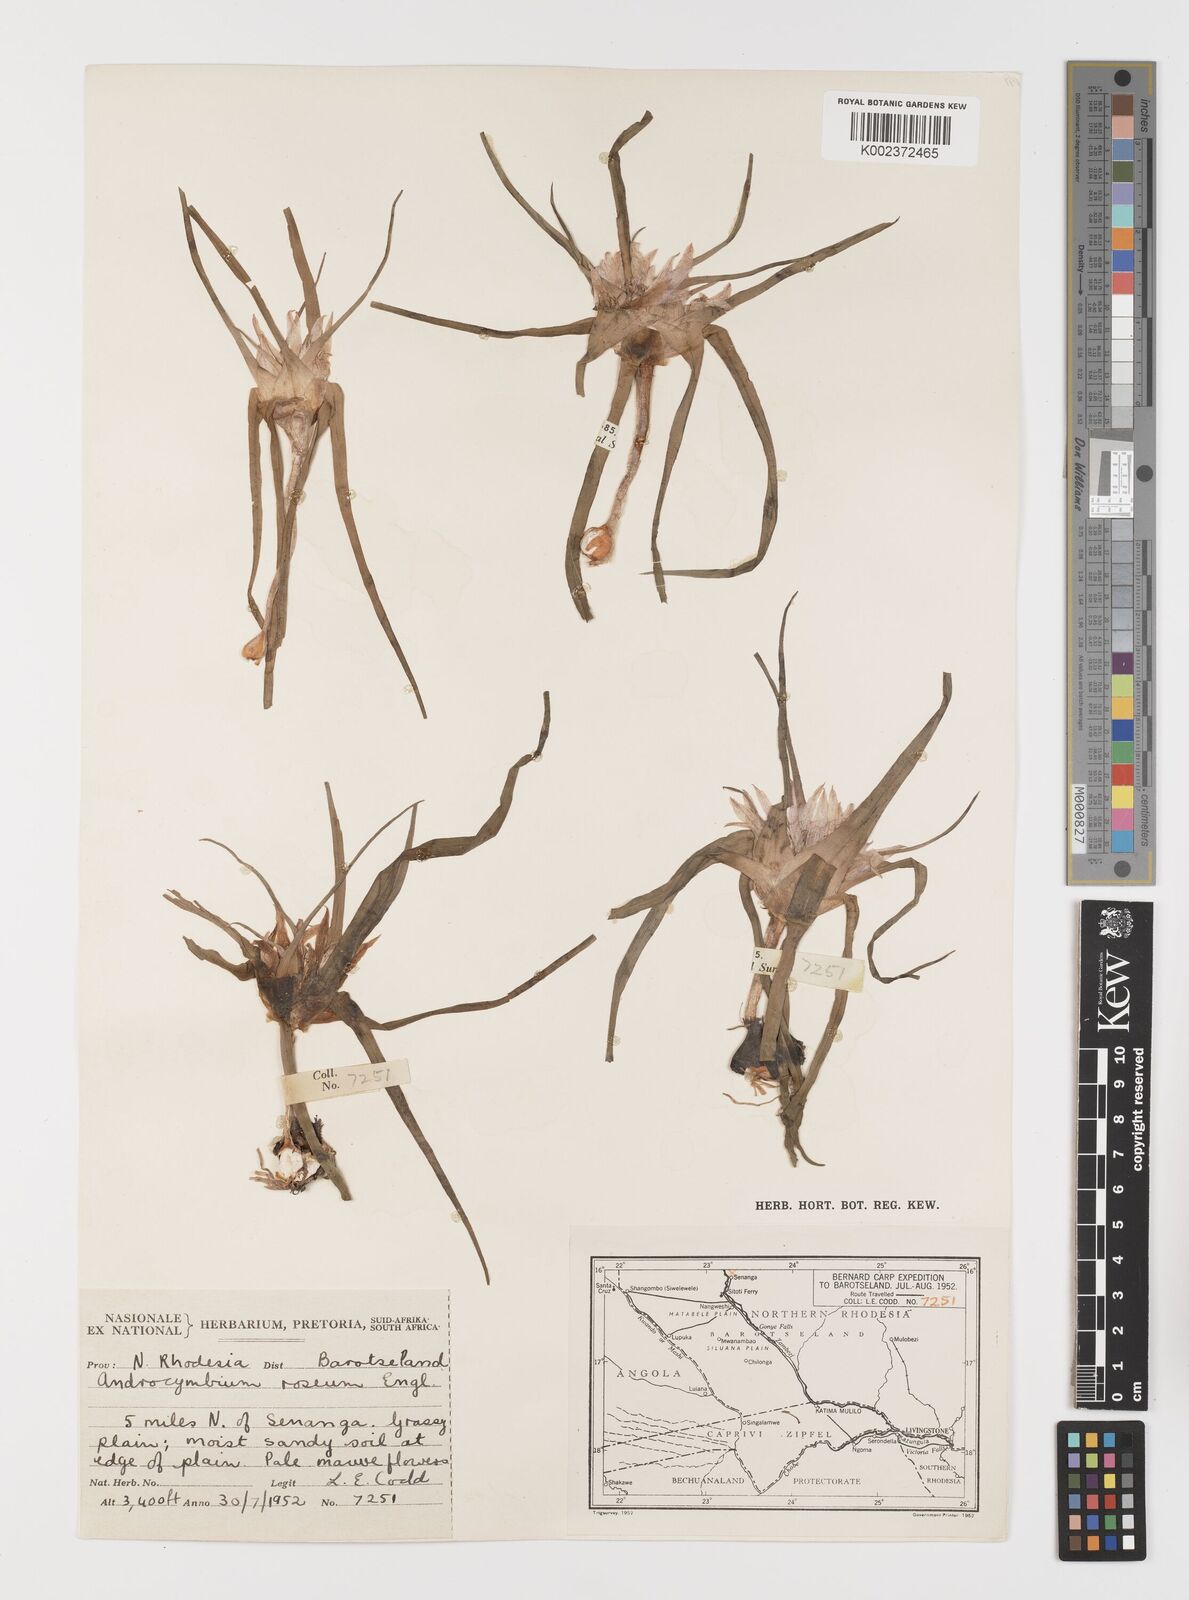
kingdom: Plantae
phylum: Tracheophyta
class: Liliopsida
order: Liliales
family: Colchicaceae
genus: Colchicum
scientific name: Colchicum roseum
